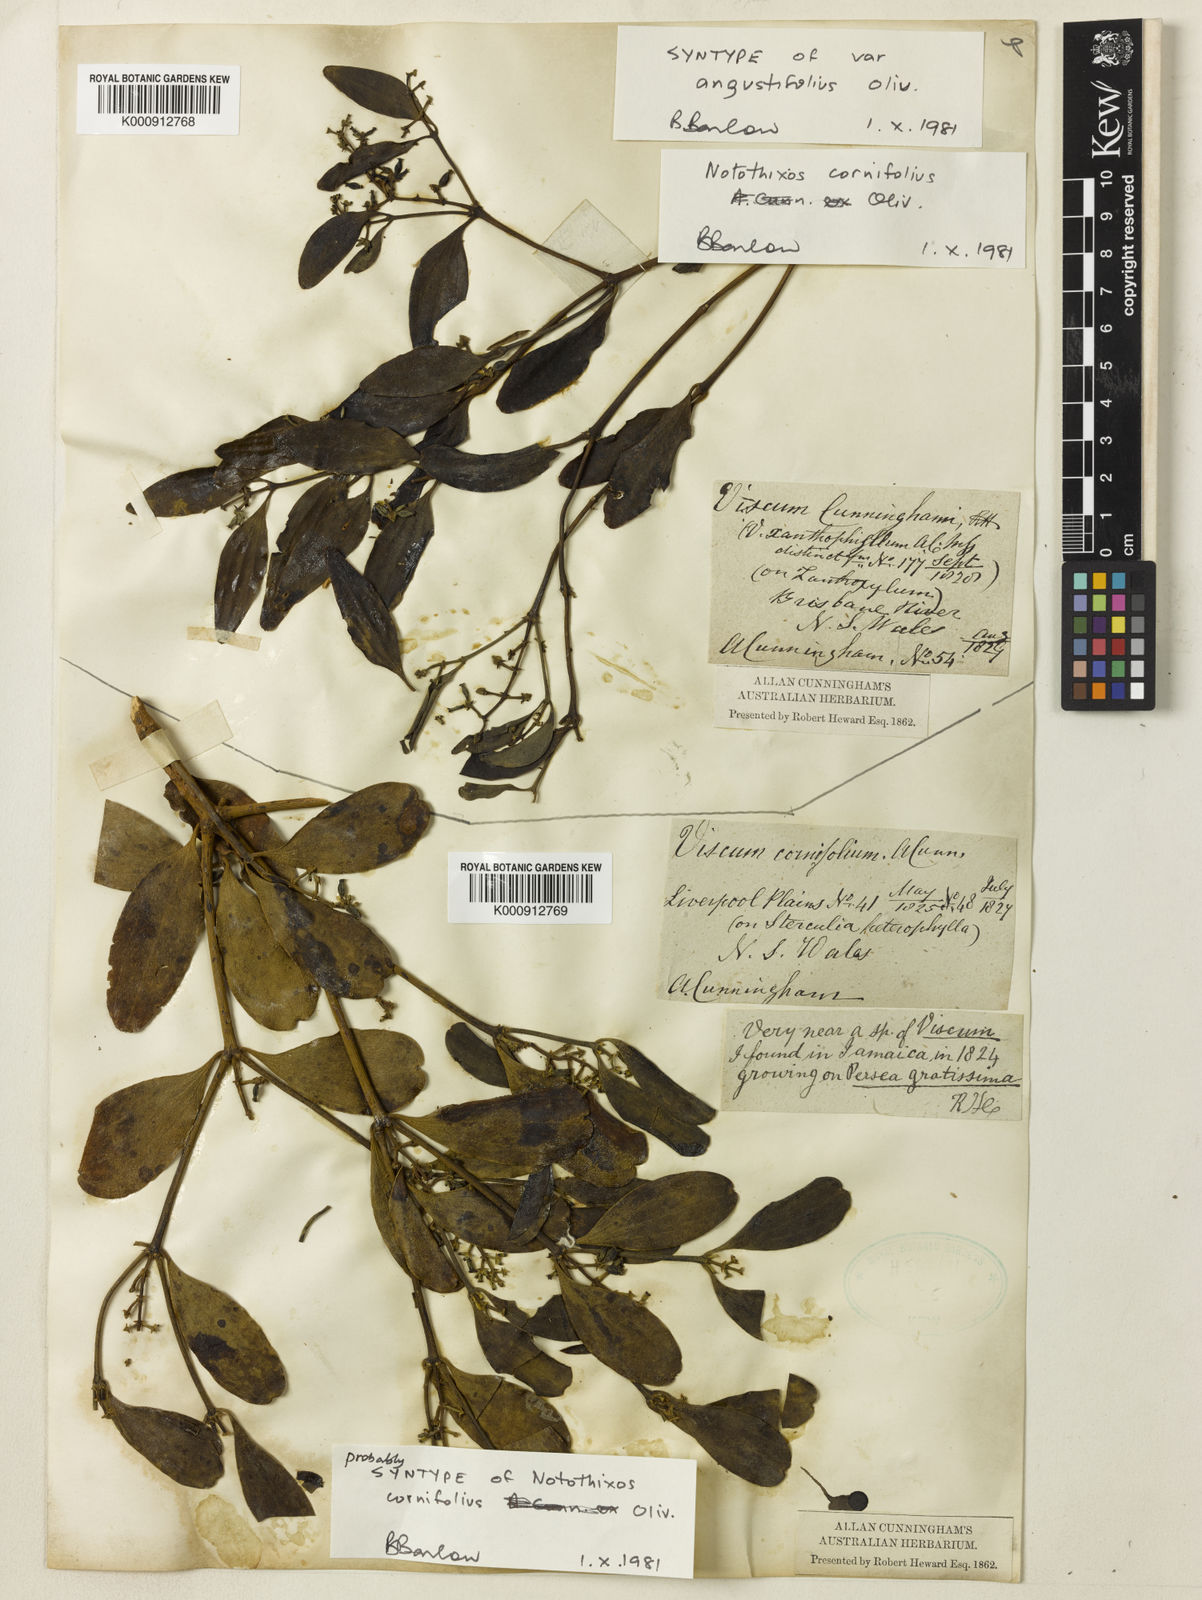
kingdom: Plantae
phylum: Tracheophyta
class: Magnoliopsida
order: Santalales
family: Viscaceae
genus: Notothixos
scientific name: Notothixos cornifolius
